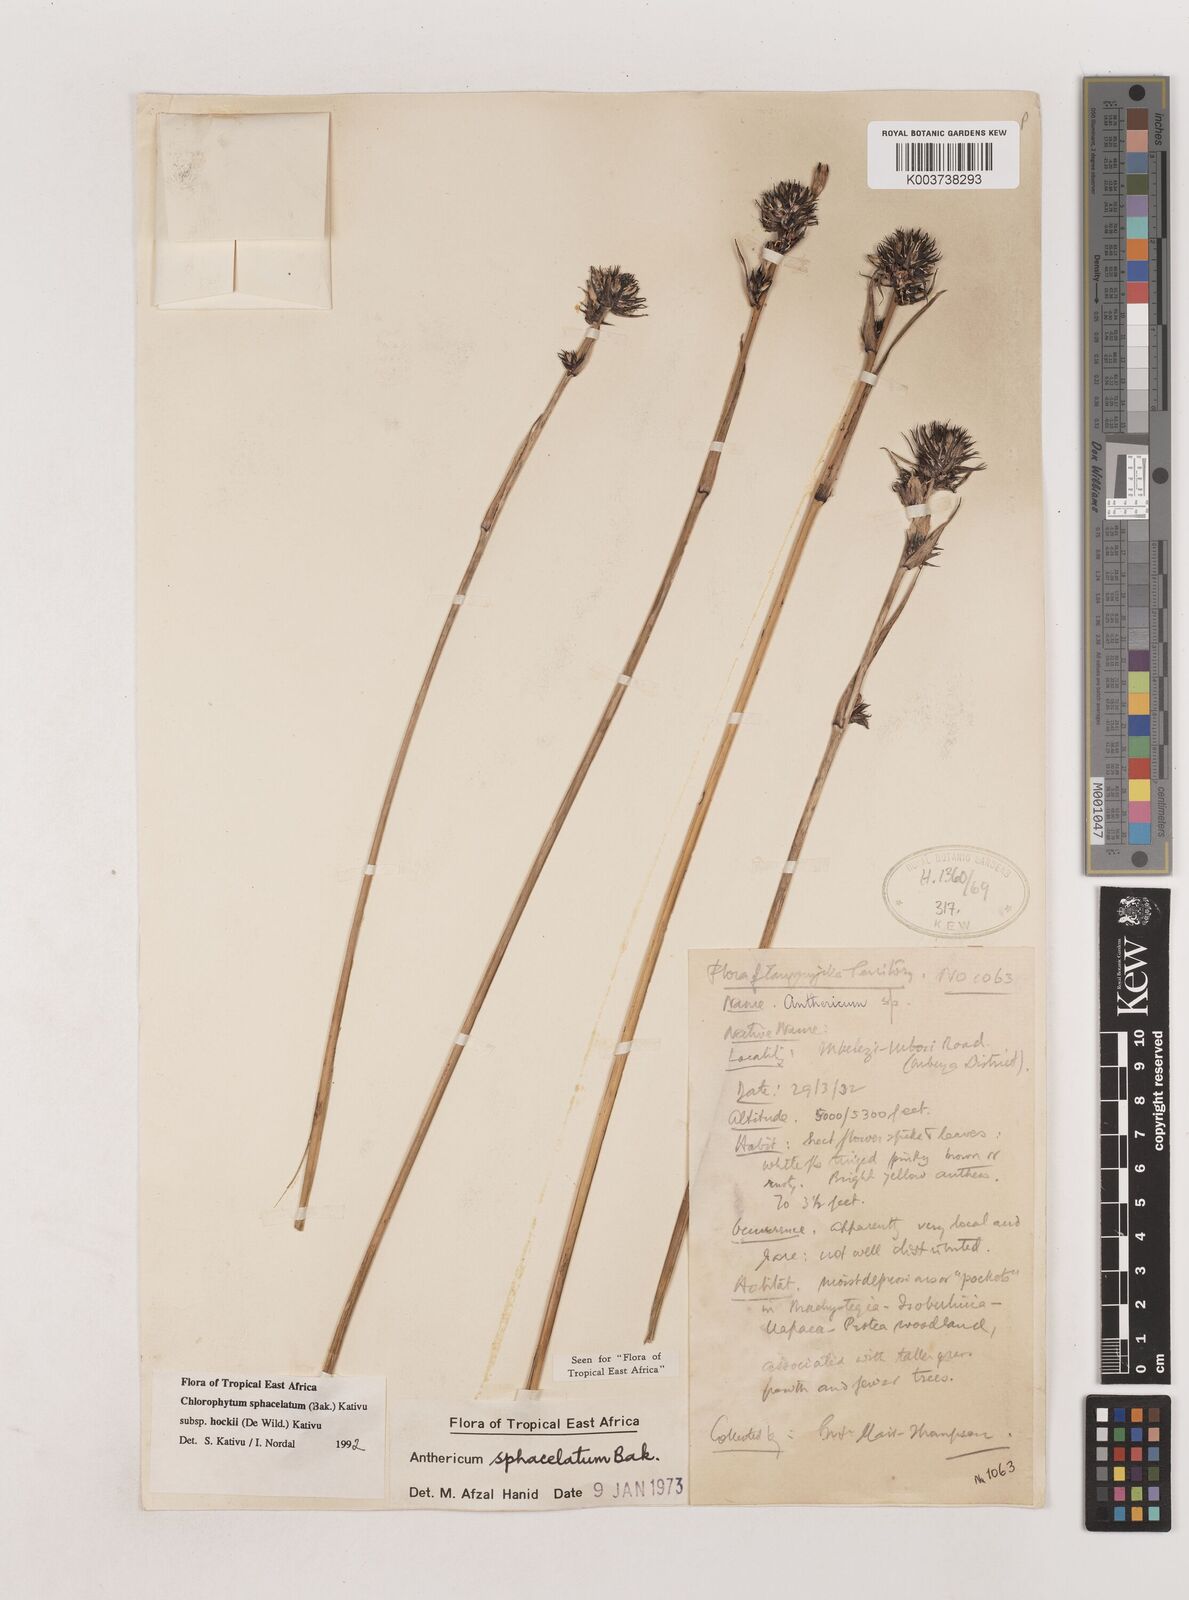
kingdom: Plantae
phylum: Tracheophyta
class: Liliopsida
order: Asparagales
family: Asparagaceae
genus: Chlorophytum
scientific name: Chlorophytum sphacelatum
